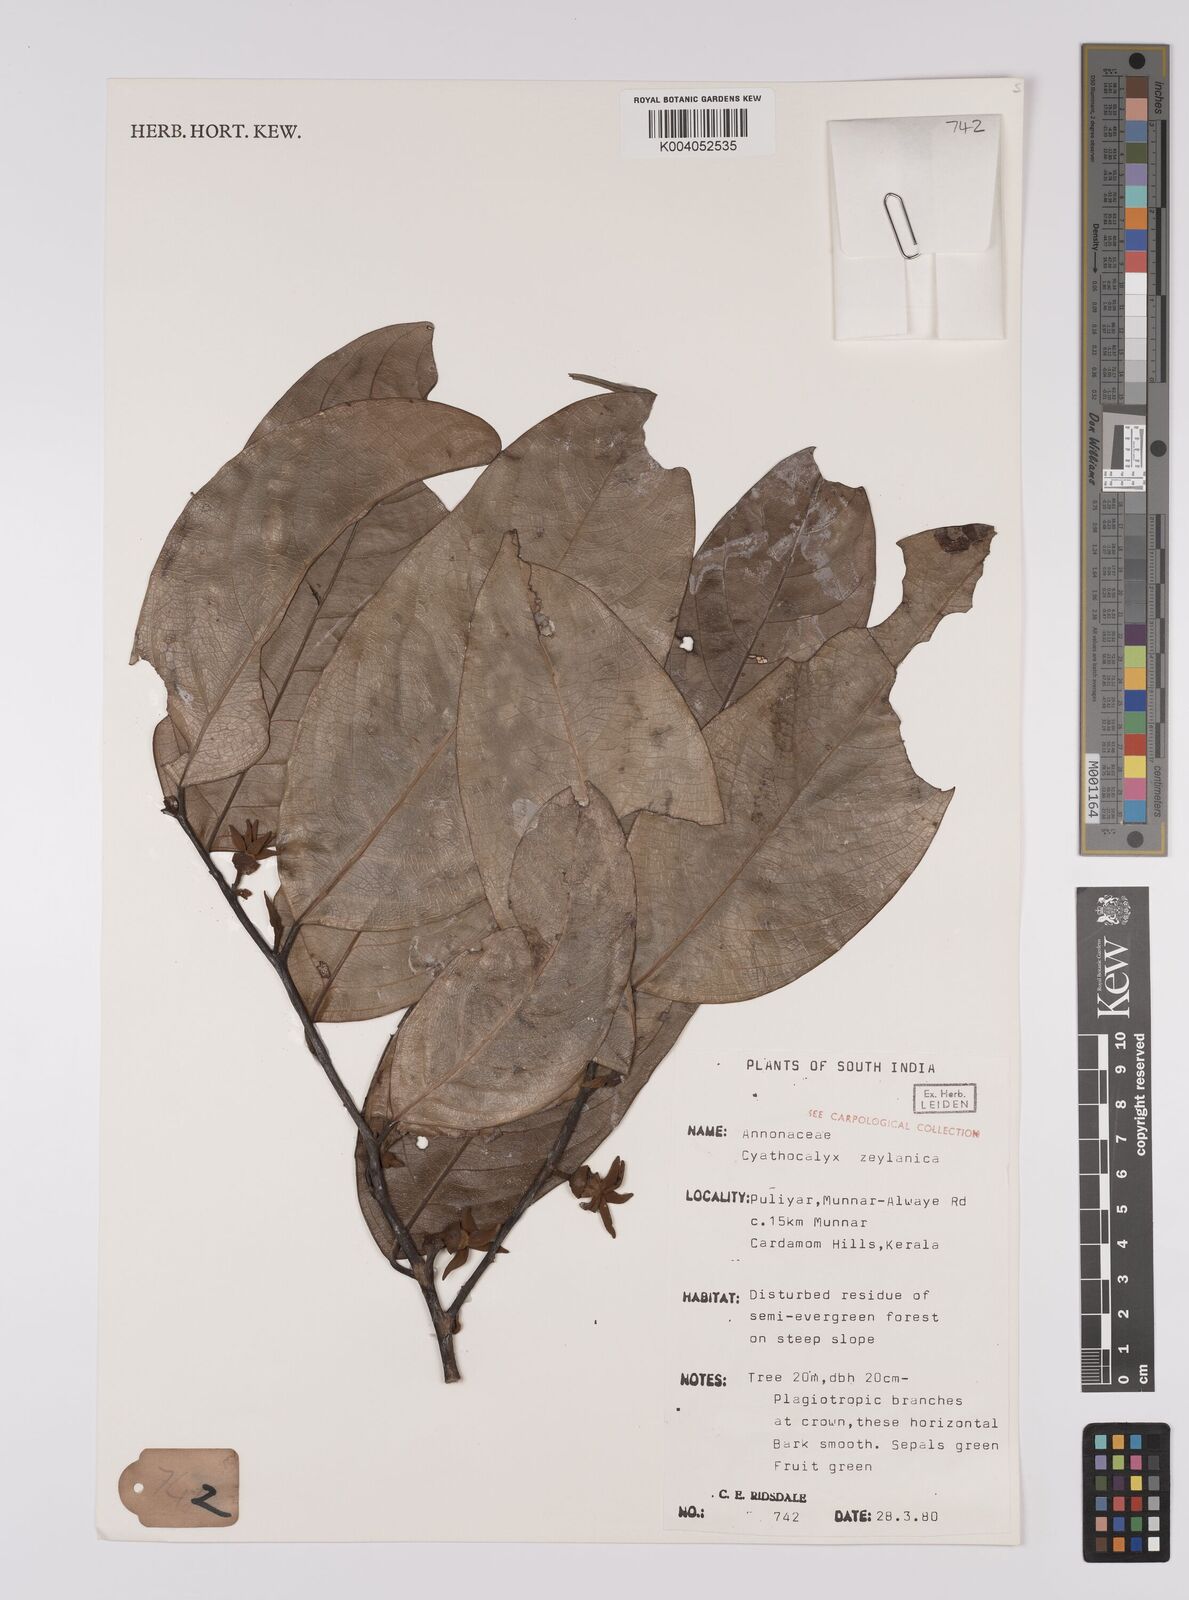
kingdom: Plantae
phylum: Tracheophyta
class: Magnoliopsida
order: Magnoliales
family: Annonaceae
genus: Cyathocalyx
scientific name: Cyathocalyx zeylanicus
